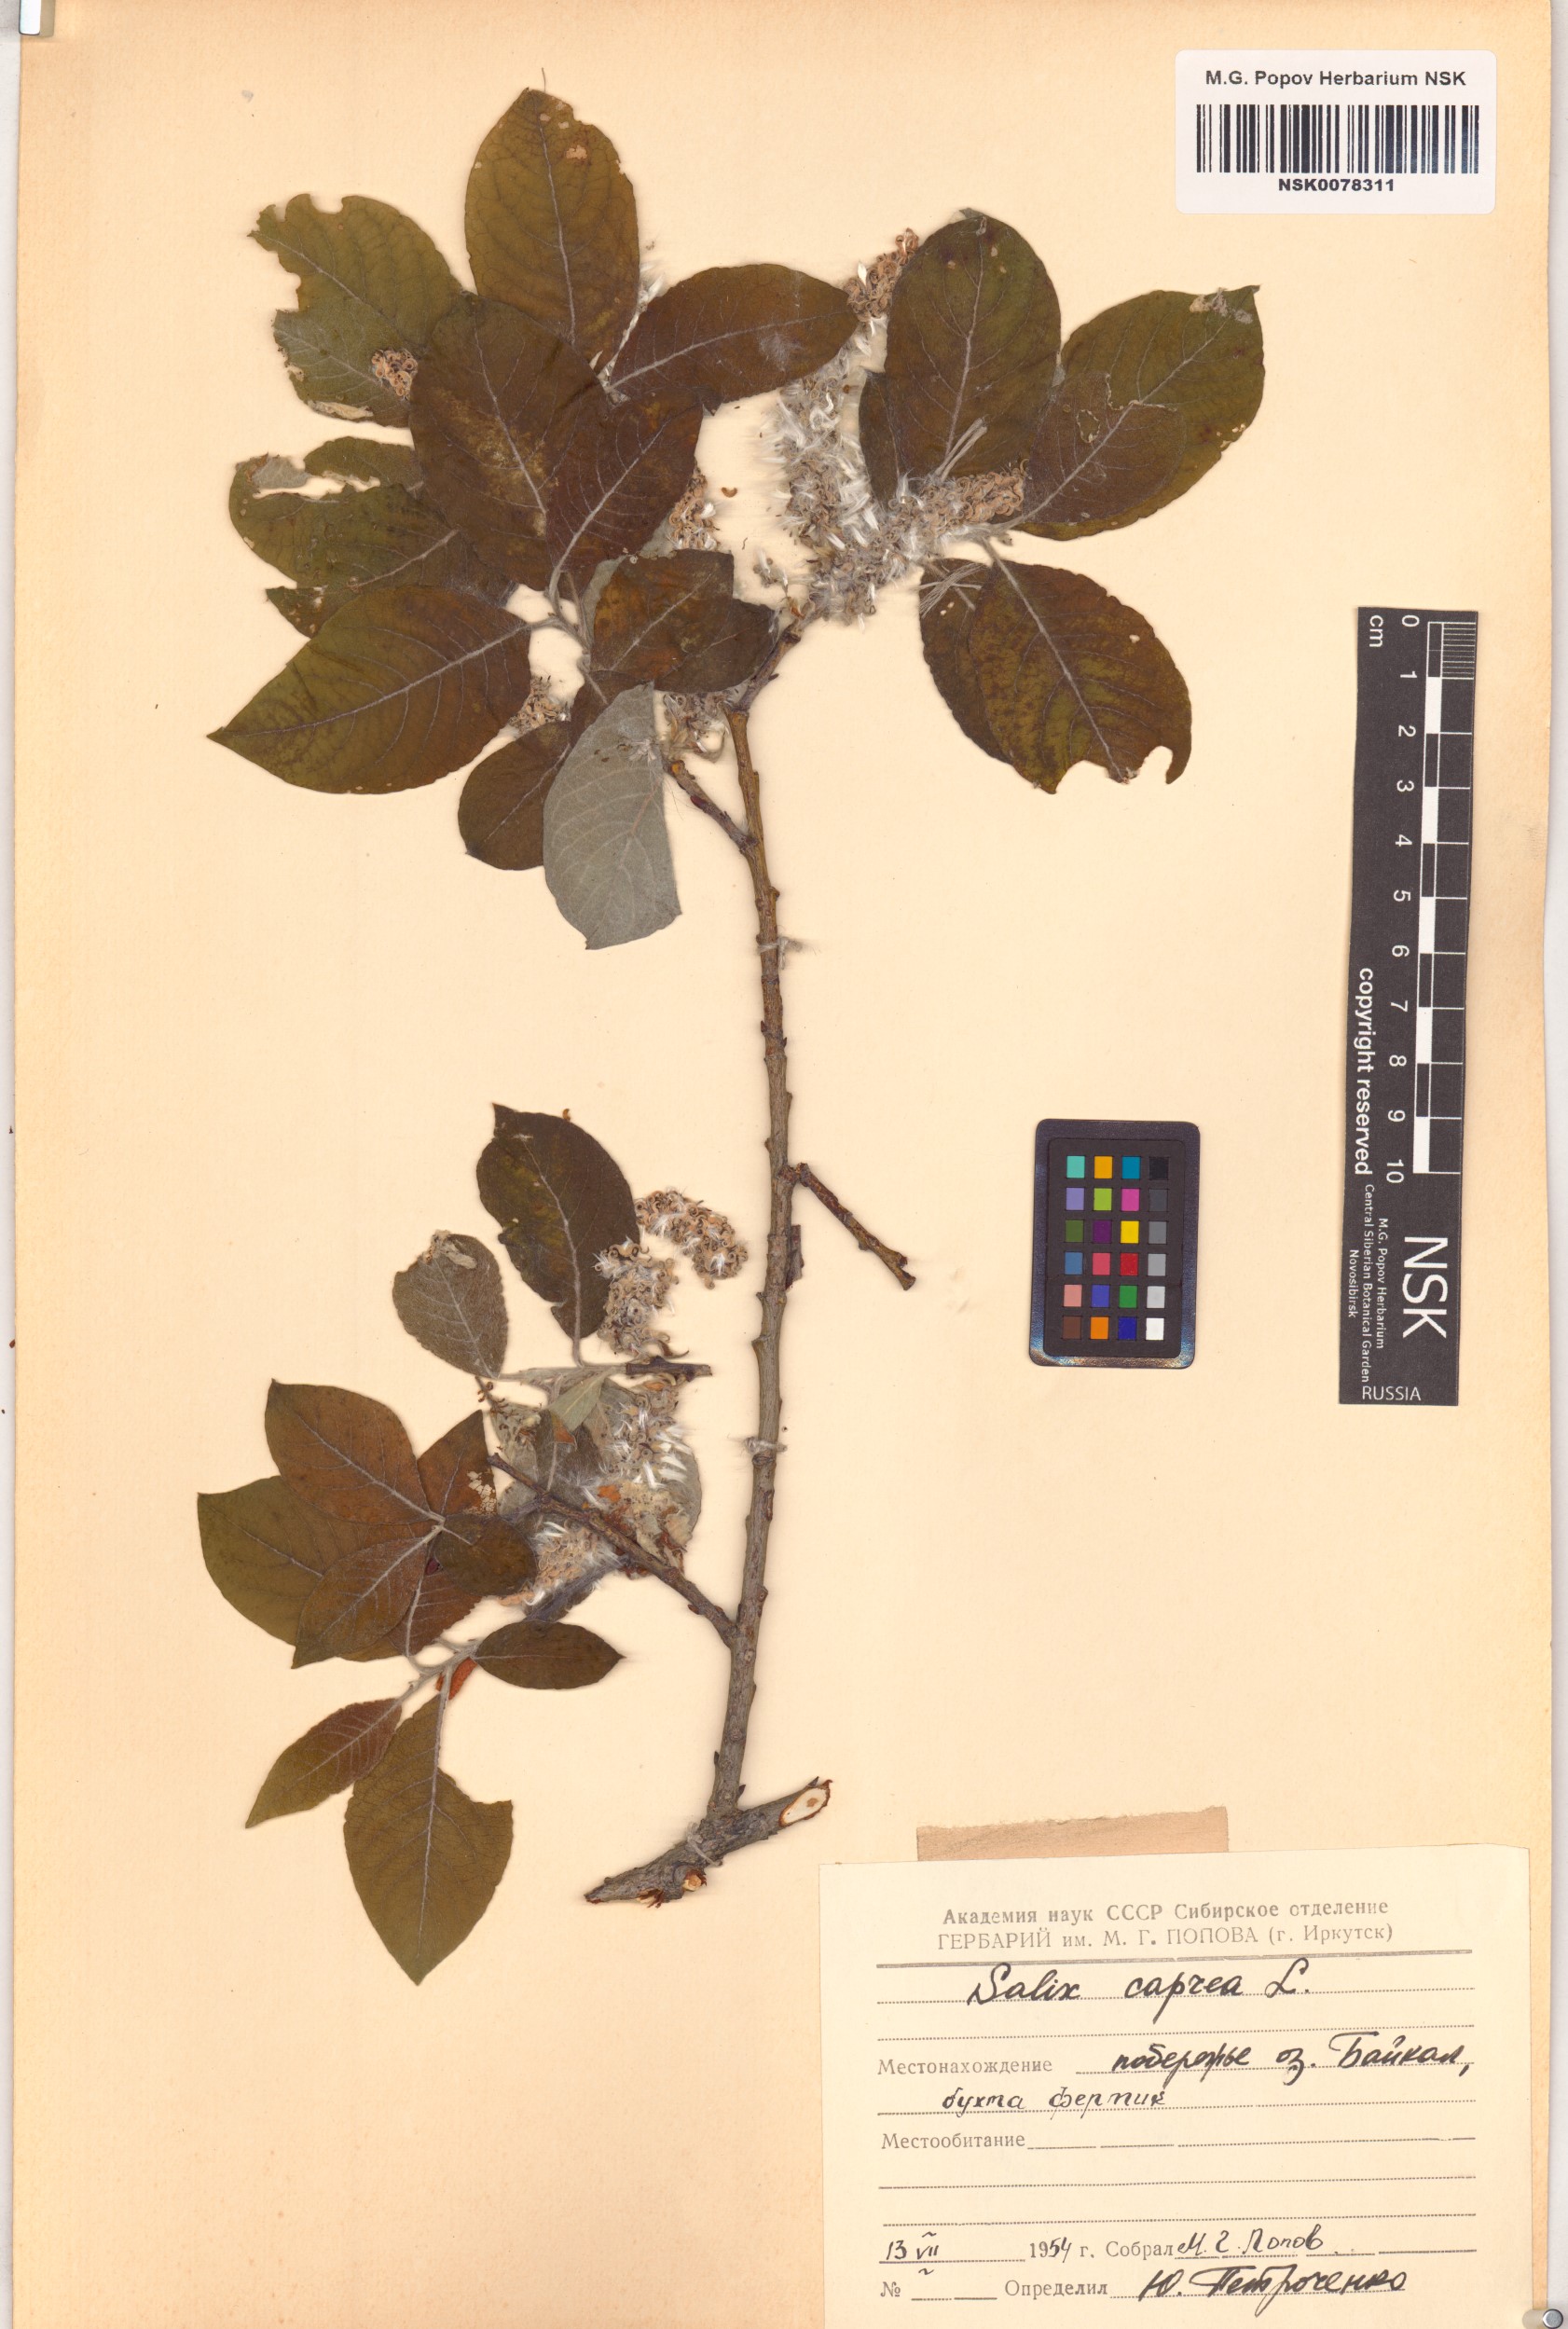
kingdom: Plantae
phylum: Tracheophyta
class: Magnoliopsida
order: Malpighiales
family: Salicaceae
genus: Salix
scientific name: Salix caprea
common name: Goat willow
